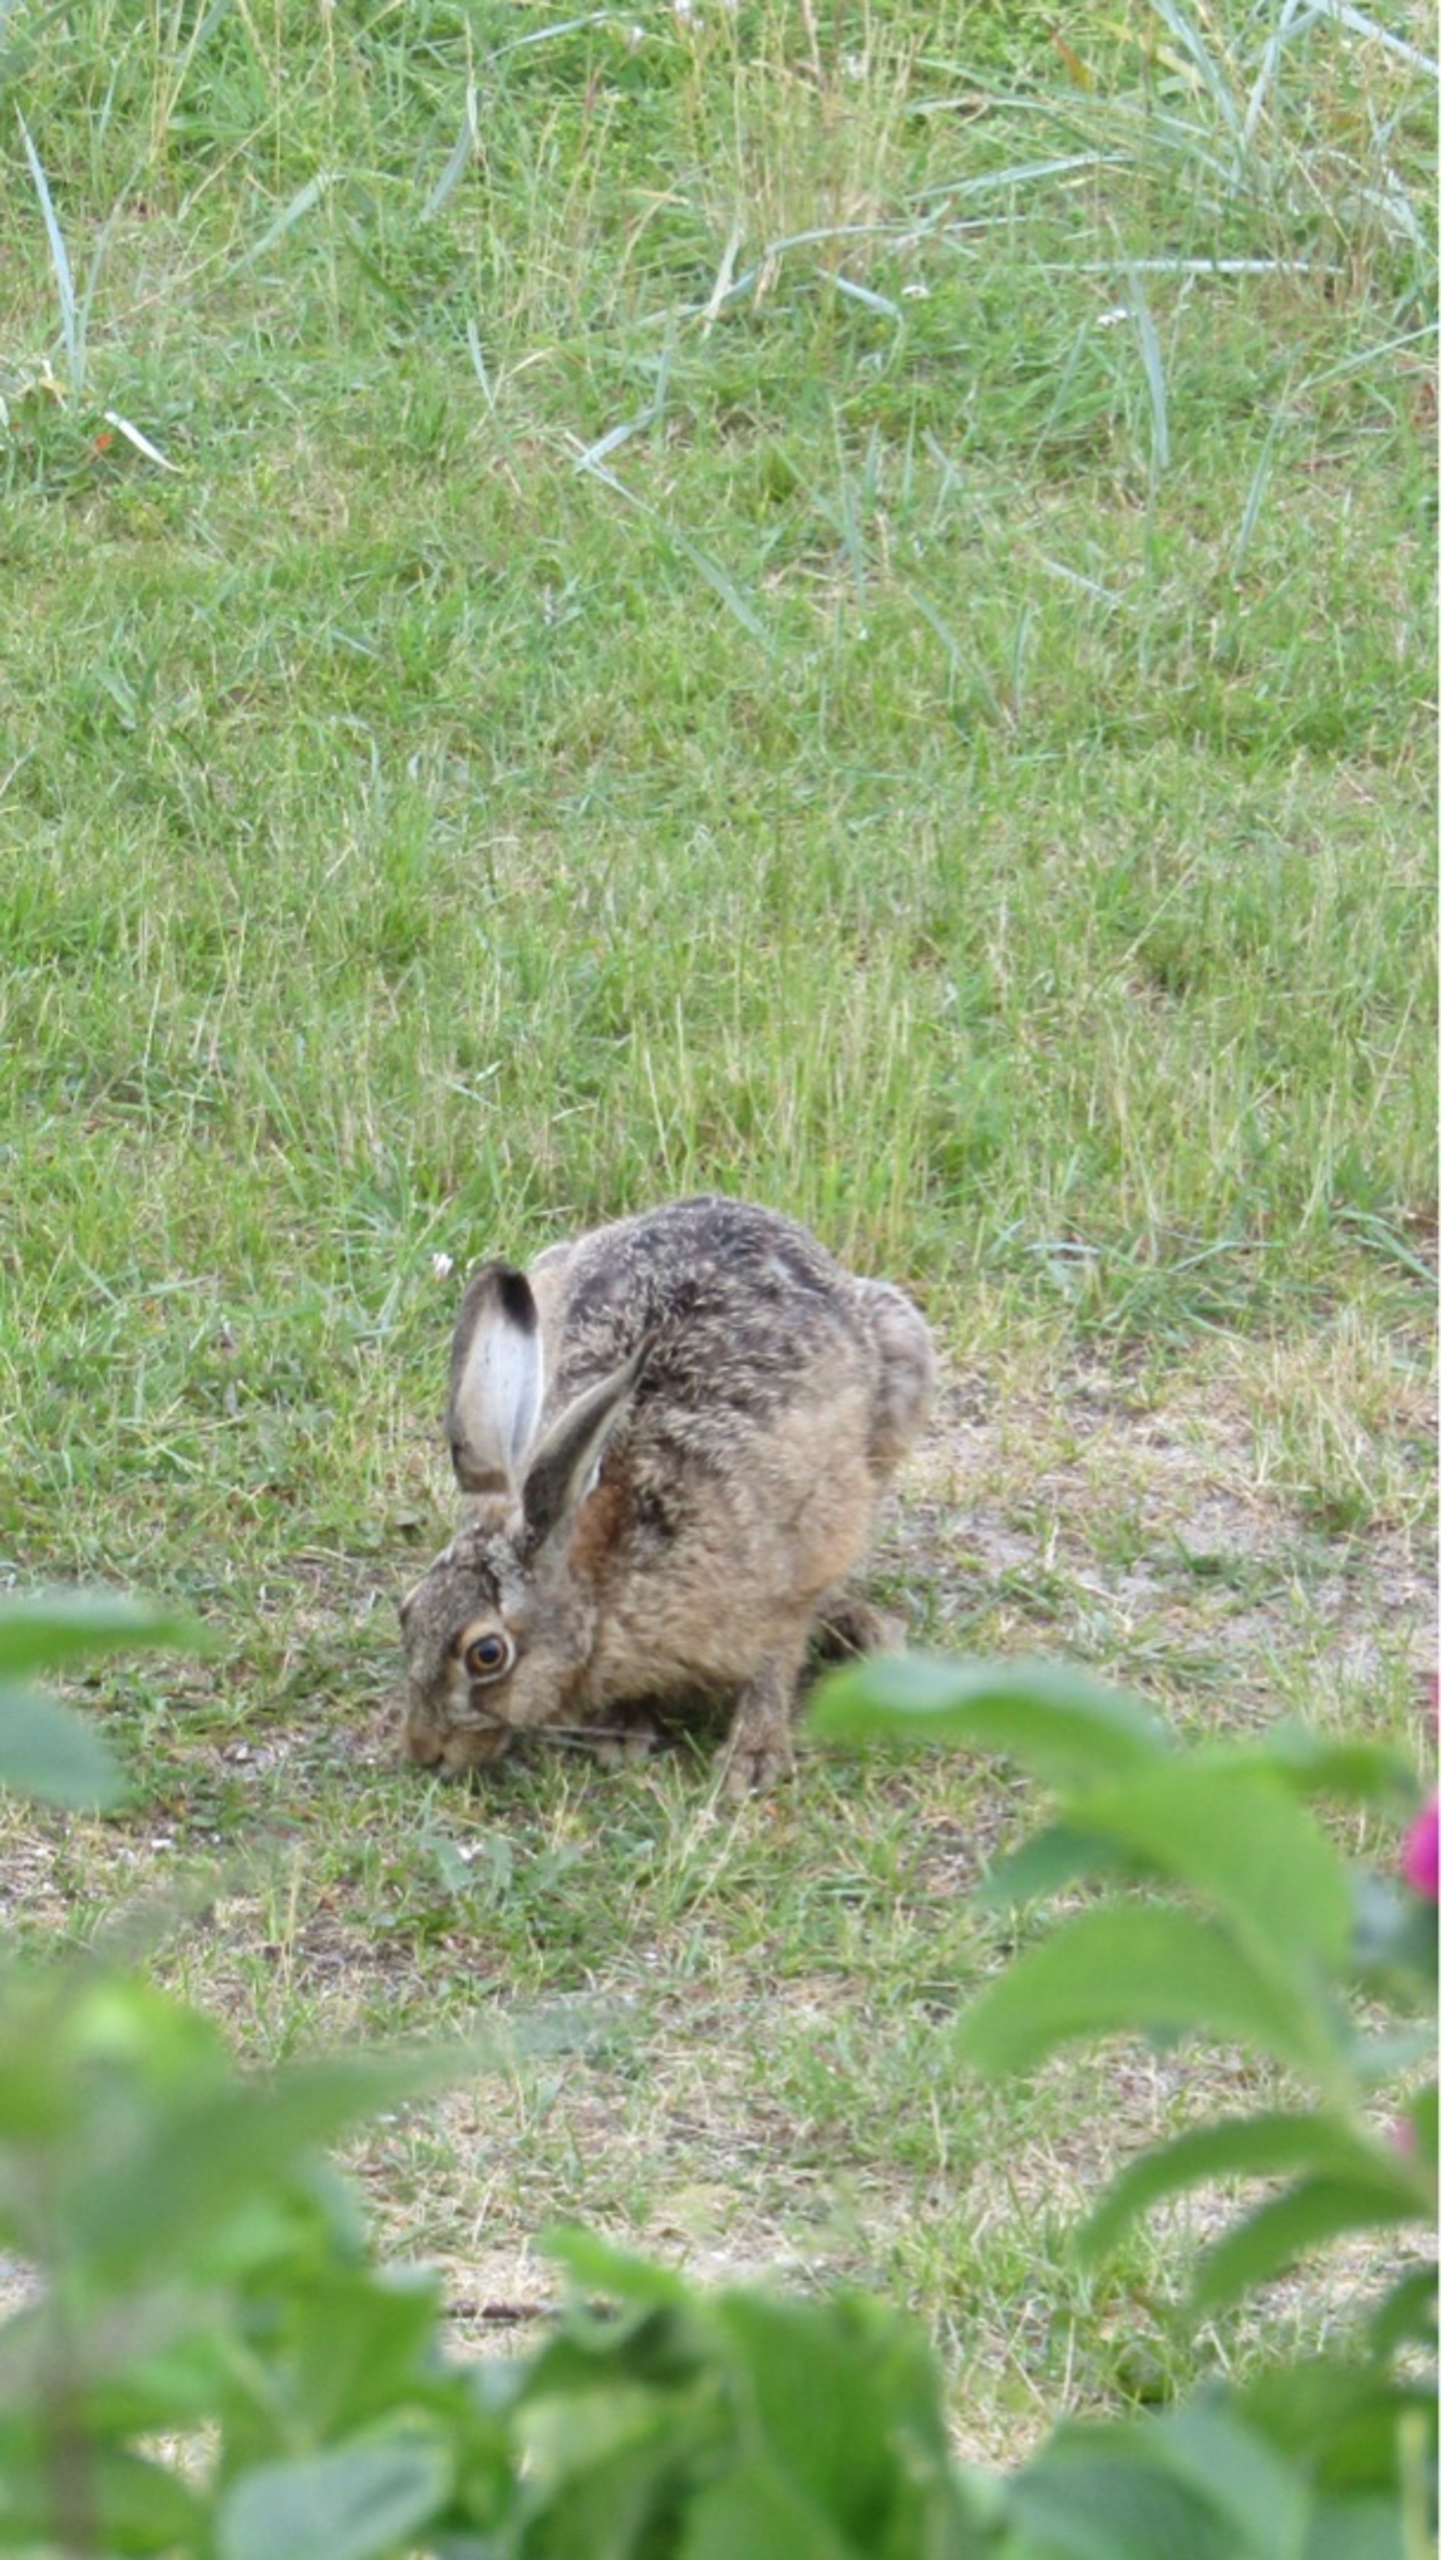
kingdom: Animalia
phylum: Chordata
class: Mammalia
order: Lagomorpha
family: Leporidae
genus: Lepus
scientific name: Lepus europaeus
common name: Hare
